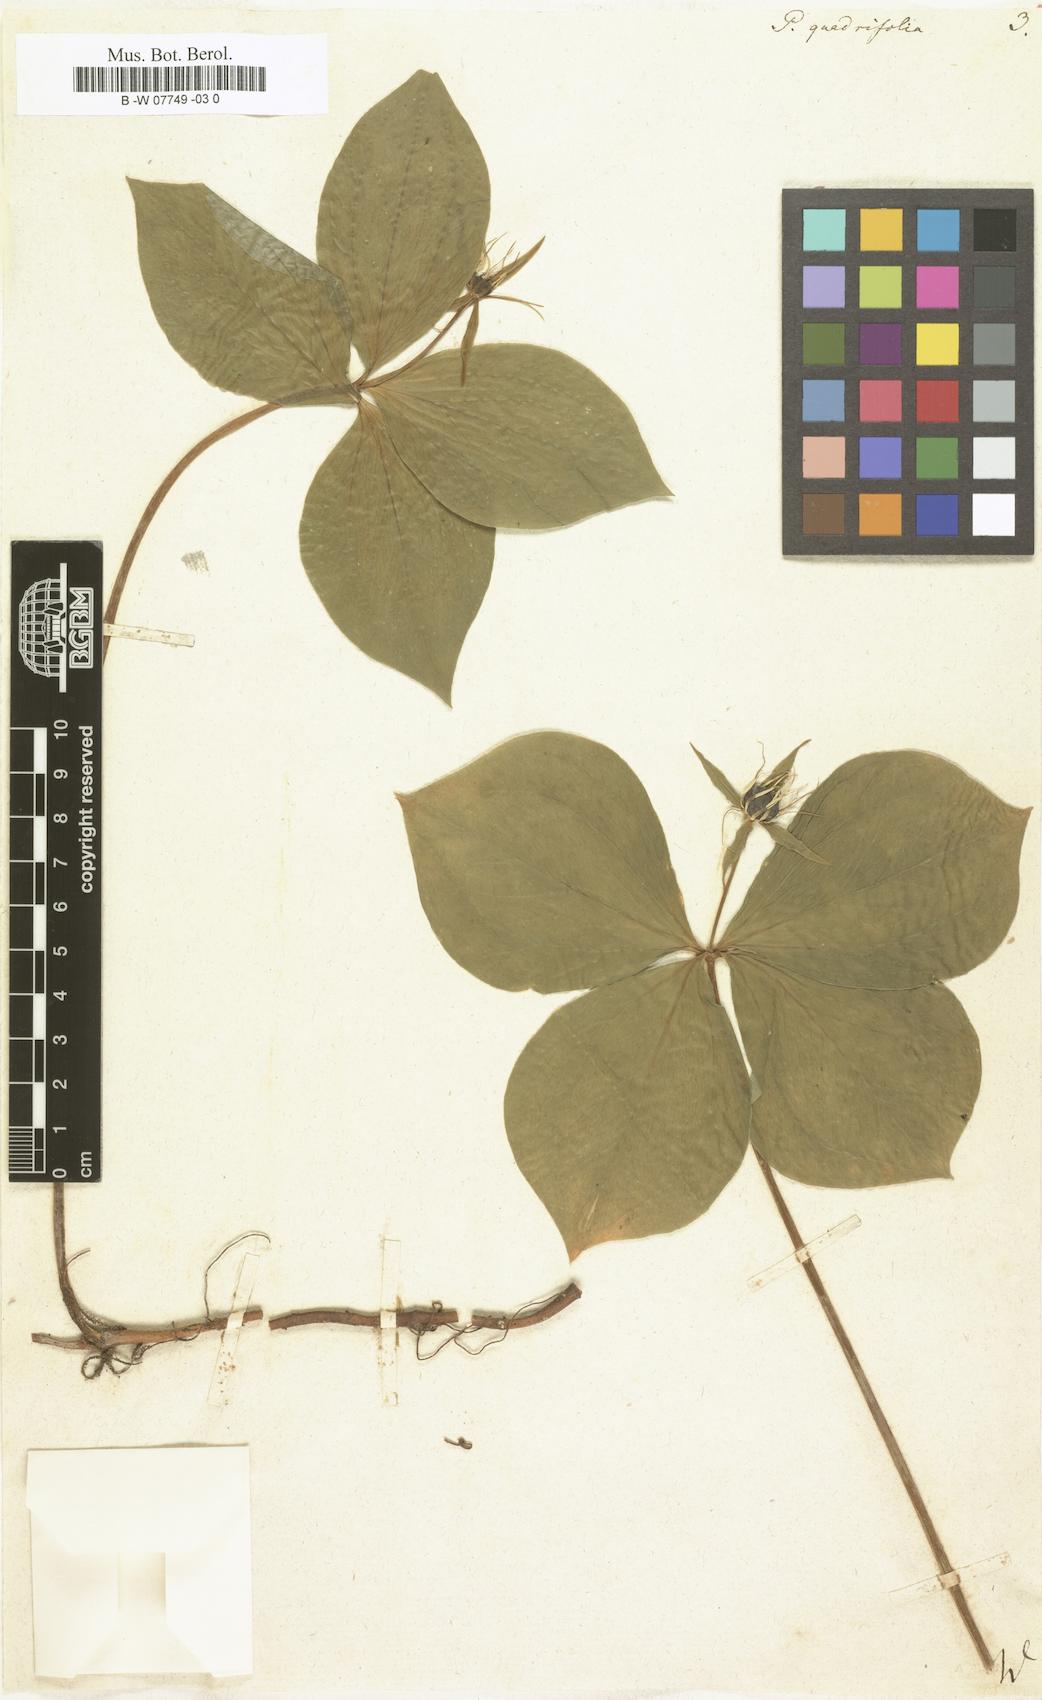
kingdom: Plantae
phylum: Tracheophyta
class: Liliopsida
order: Liliales
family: Melanthiaceae
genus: Paris
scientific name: Paris quadrifolia
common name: Herb-paris
